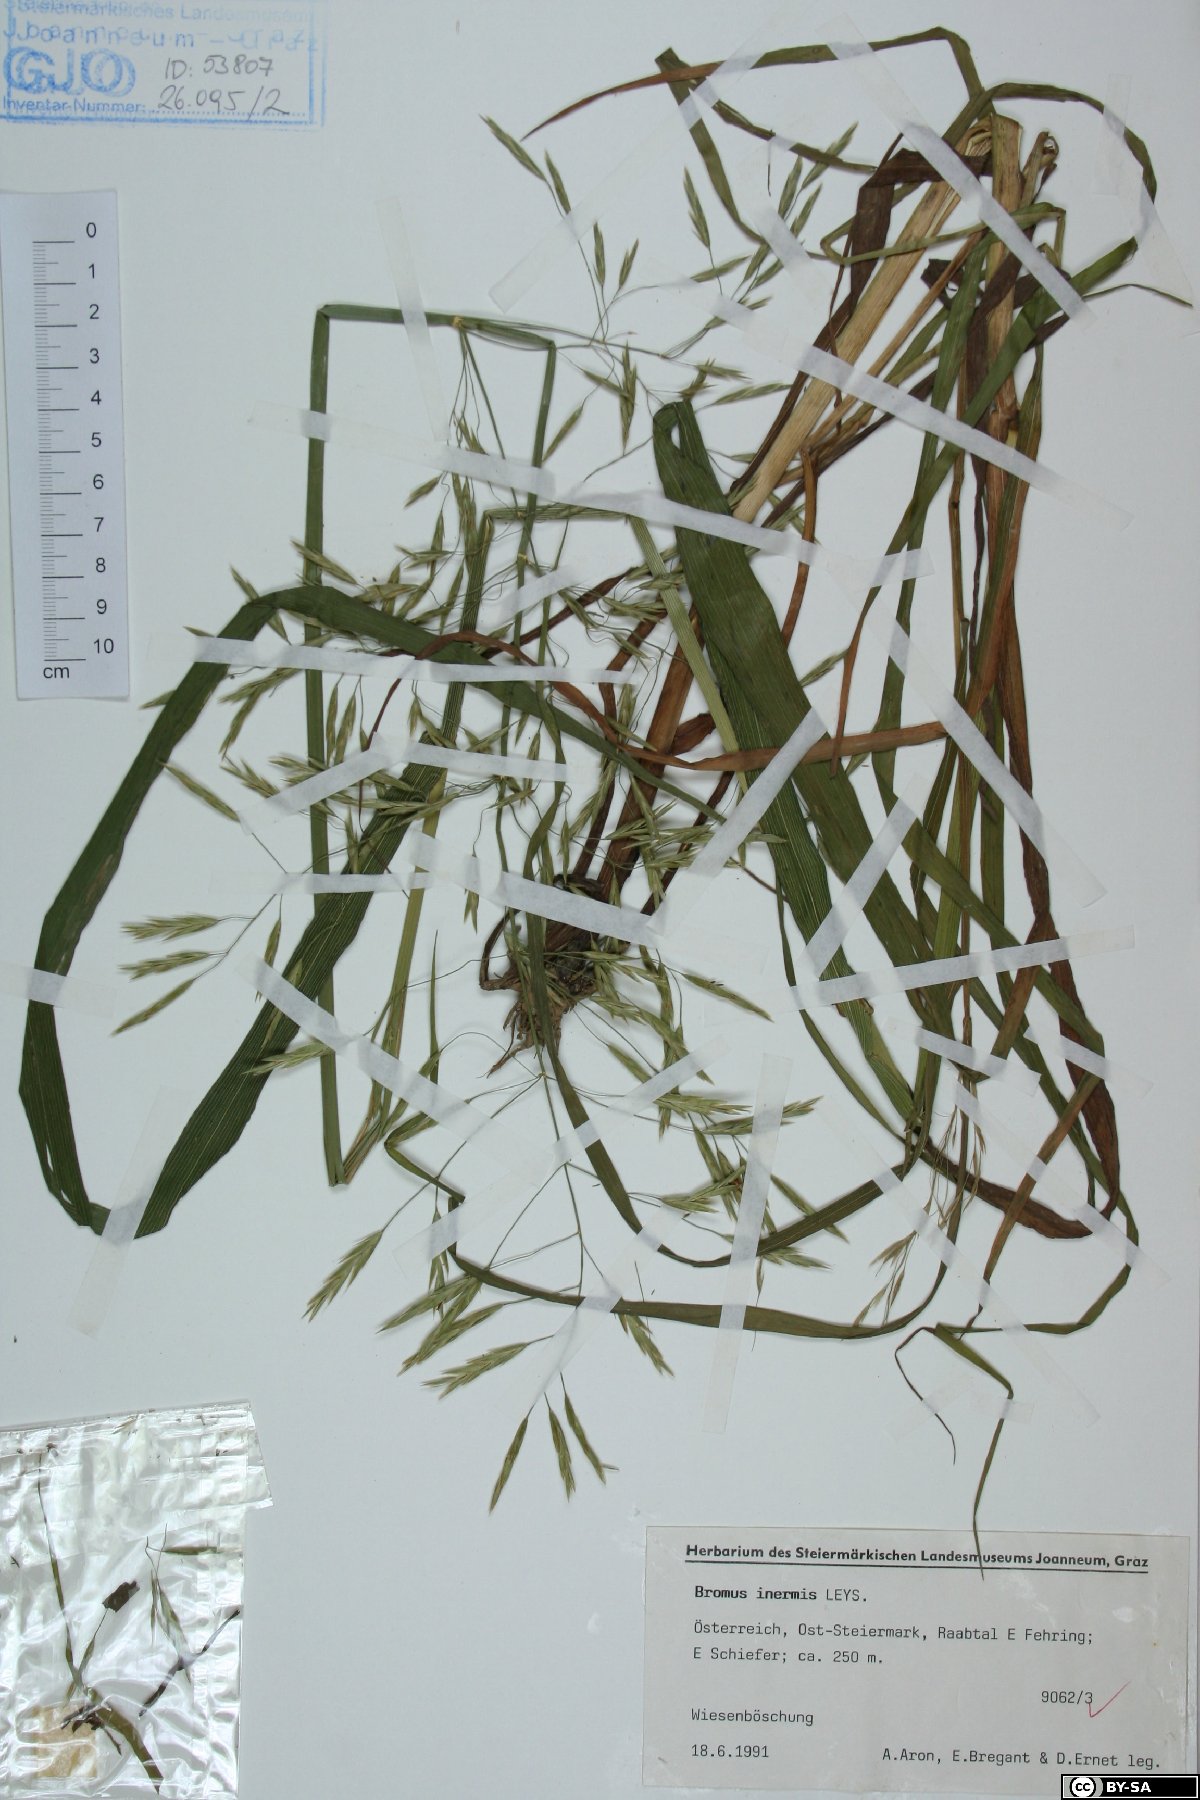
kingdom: Plantae
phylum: Tracheophyta
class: Liliopsida
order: Poales
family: Poaceae
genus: Bromus
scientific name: Bromus inermis
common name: Smooth brome
